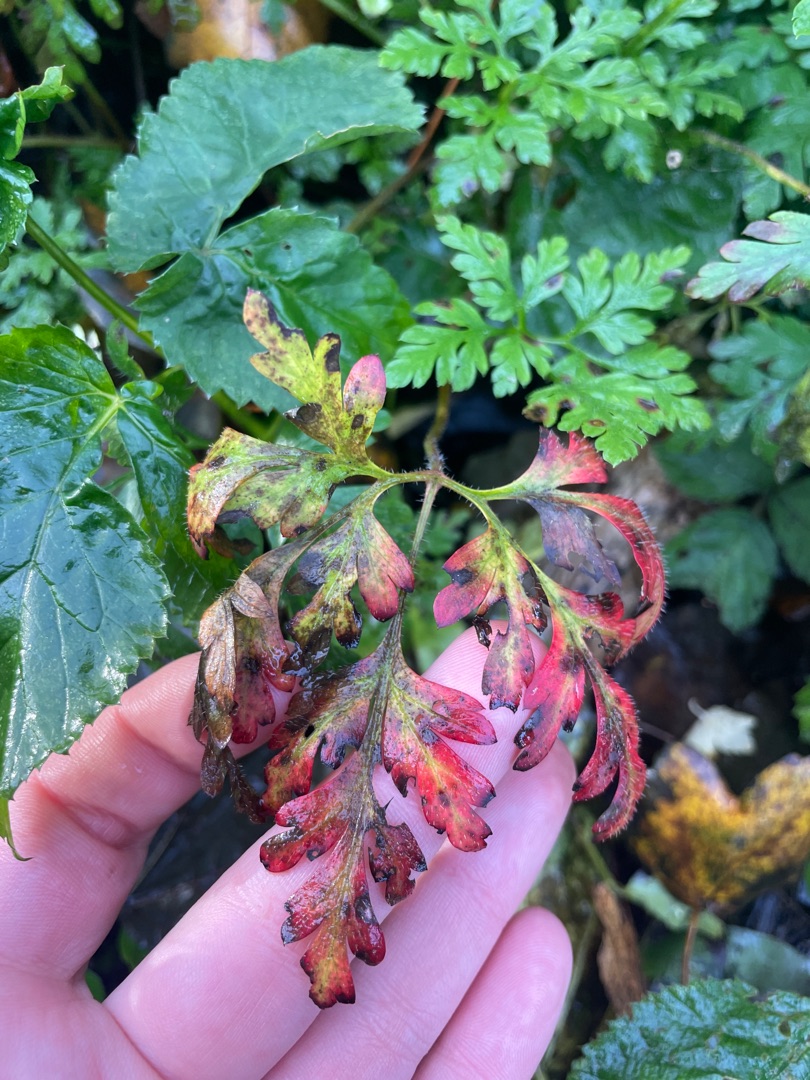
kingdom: Plantae
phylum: Tracheophyta
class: Magnoliopsida
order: Geraniales
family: Geraniaceae
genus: Geranium
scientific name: Geranium robertianum
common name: Stinkende storkenæb
